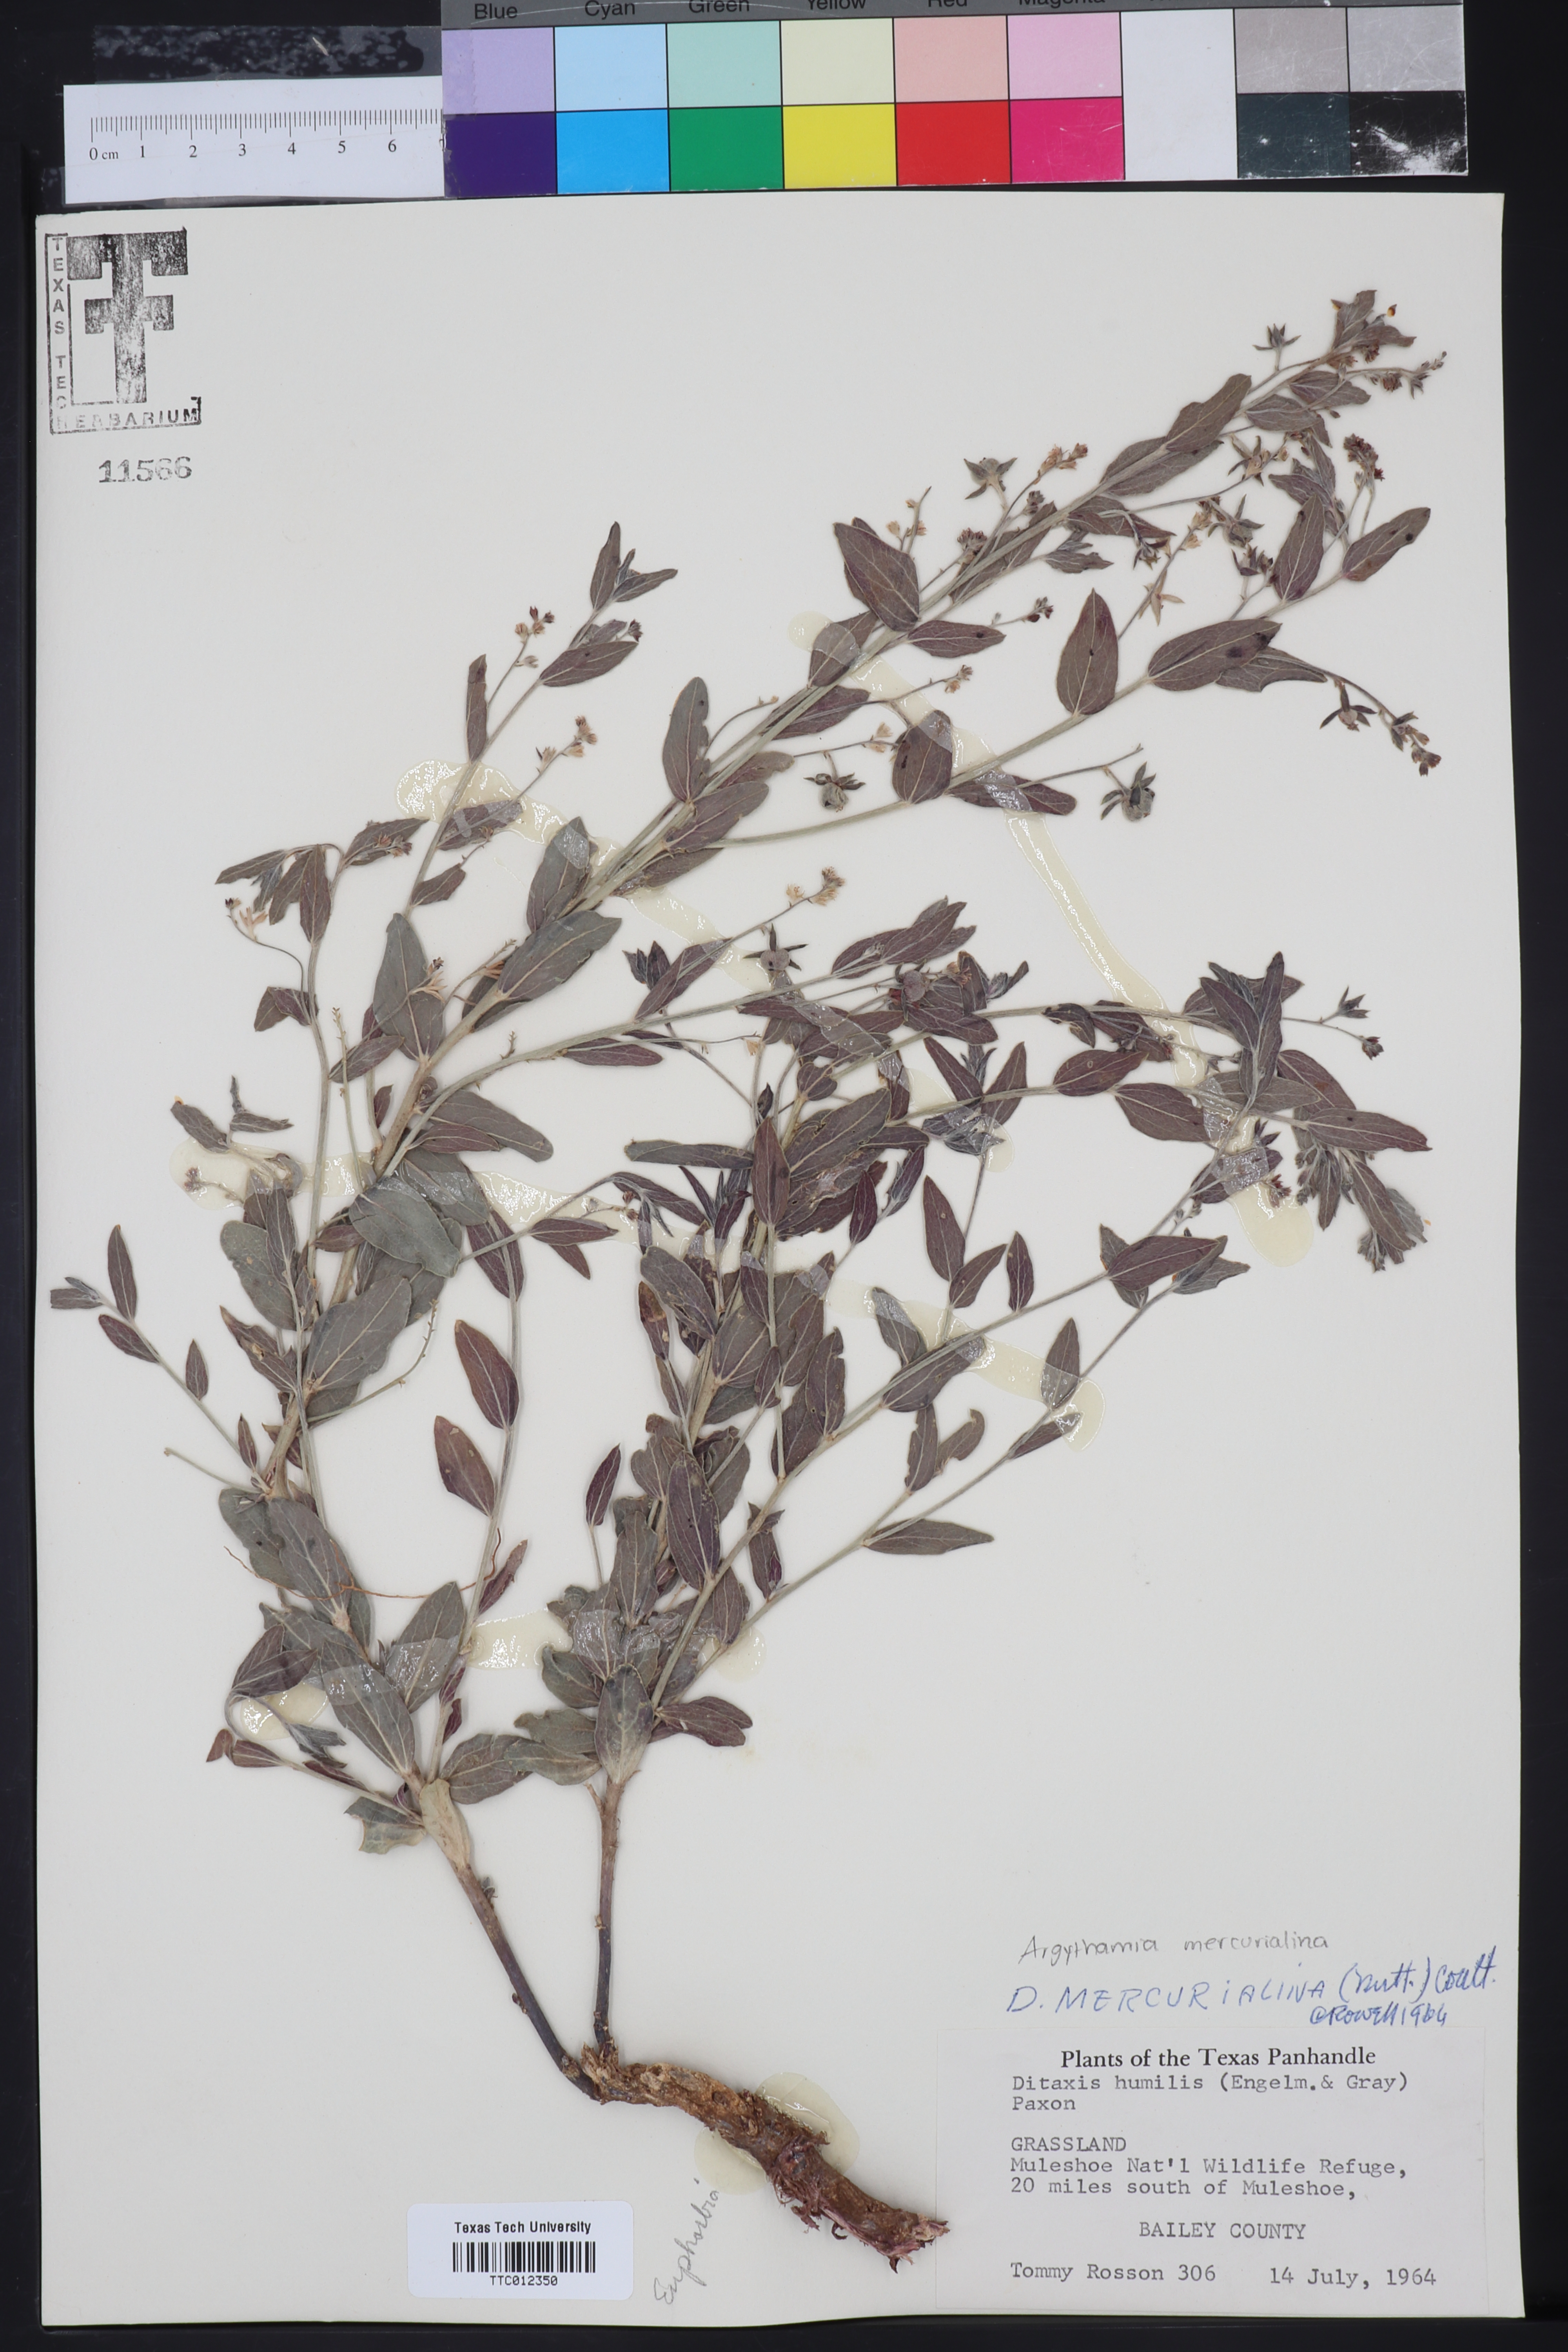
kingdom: Plantae
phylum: Tracheophyta
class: Magnoliopsida
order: Malpighiales
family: Euphorbiaceae
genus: Ditaxis
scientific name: Ditaxis mercurialina
